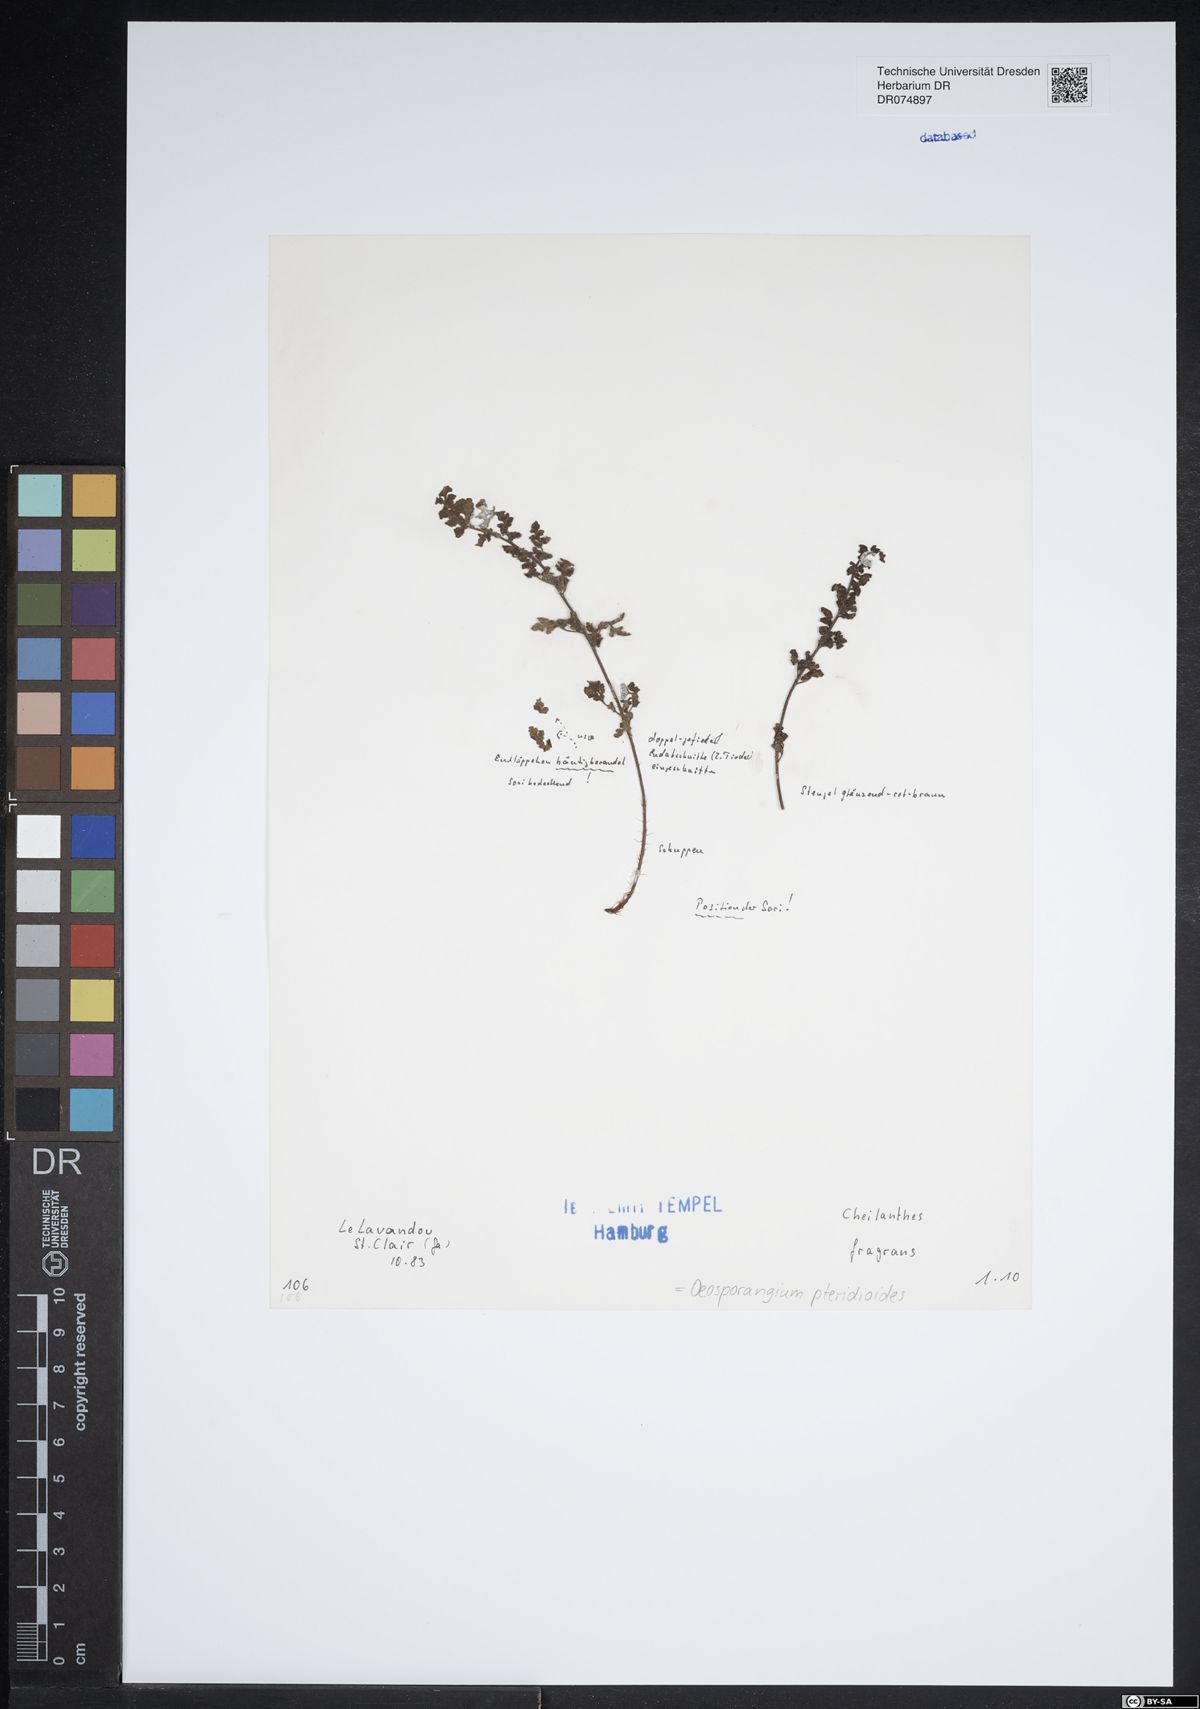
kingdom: Plantae
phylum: Tracheophyta
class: Polypodiopsida
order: Polypodiales
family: Pteridaceae
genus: Oeosporangium
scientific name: Oeosporangium pteridioides
